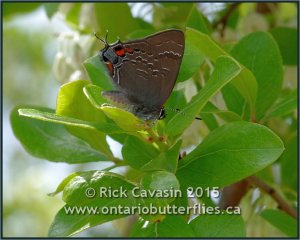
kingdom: Animalia
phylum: Arthropoda
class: Insecta
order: Lepidoptera
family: Lycaenidae
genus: Satyrium
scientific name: Satyrium calanus
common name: Banded Hairstreak
